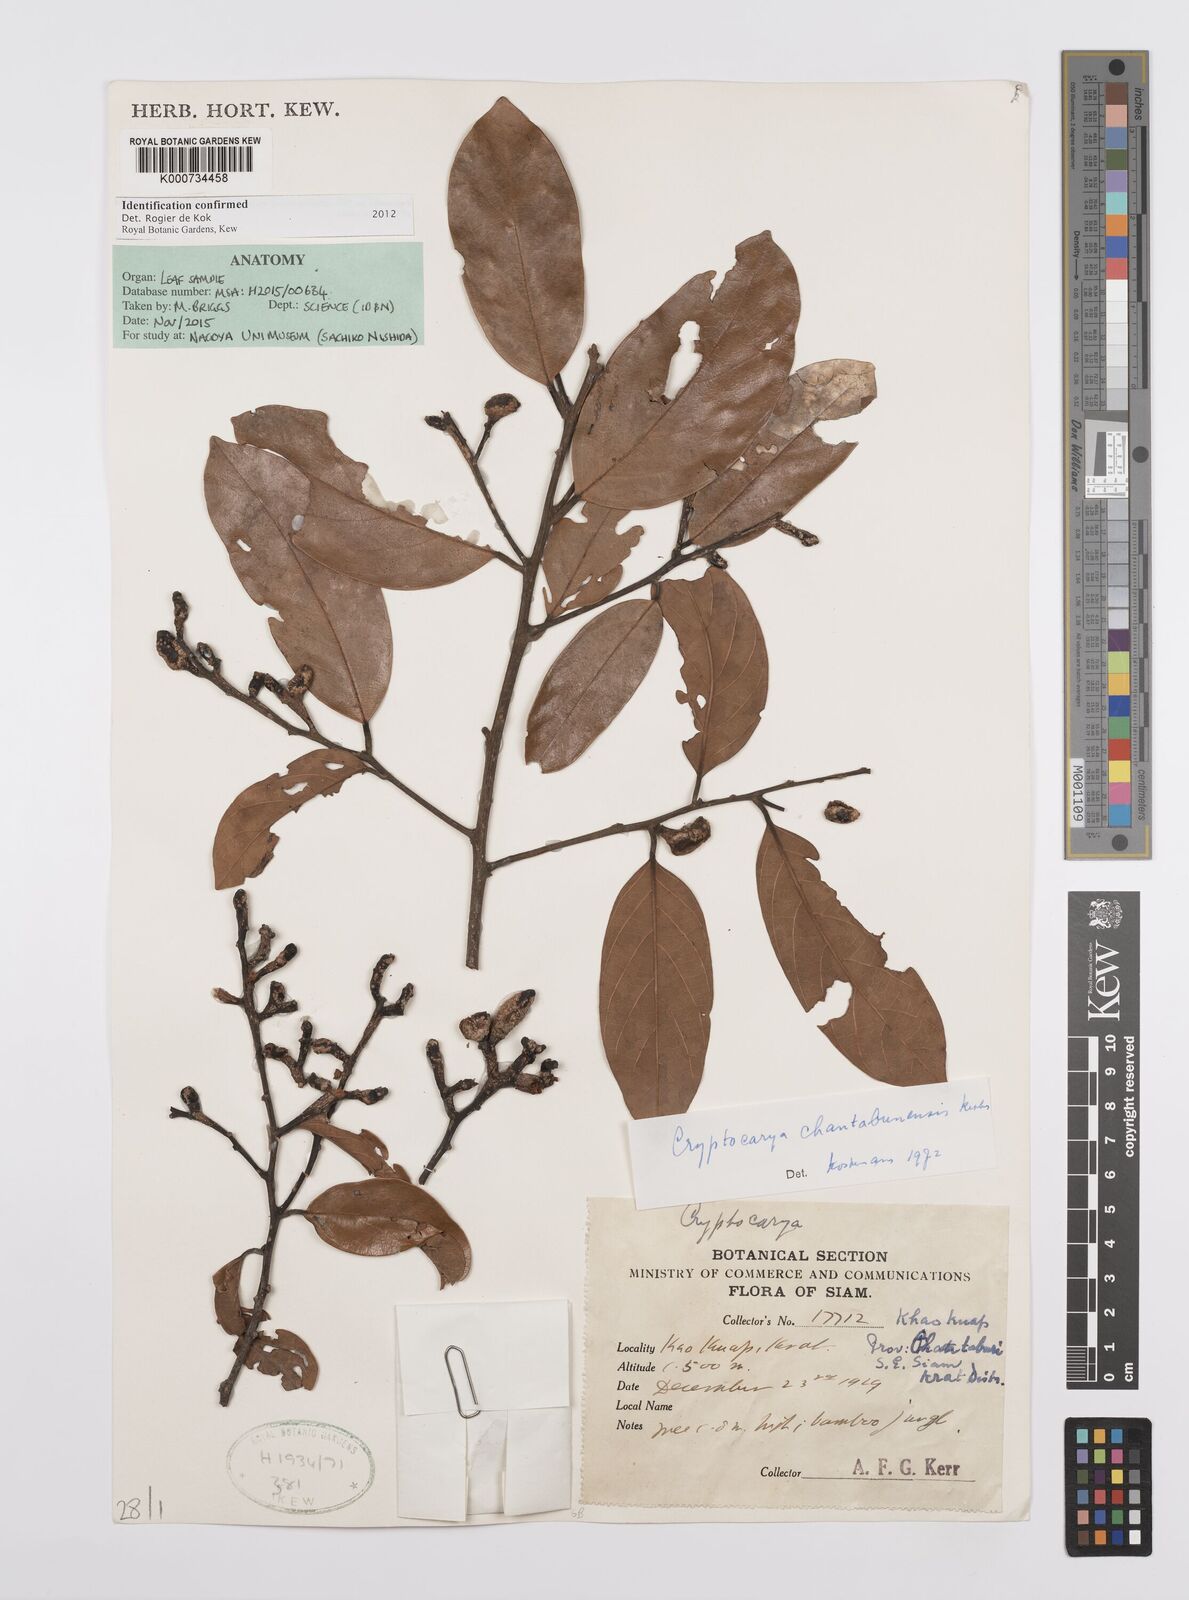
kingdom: Plantae
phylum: Tracheophyta
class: Magnoliopsida
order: Laurales
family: Lauraceae
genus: Cryptocarya
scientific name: Cryptocarya chanthaburiensis
